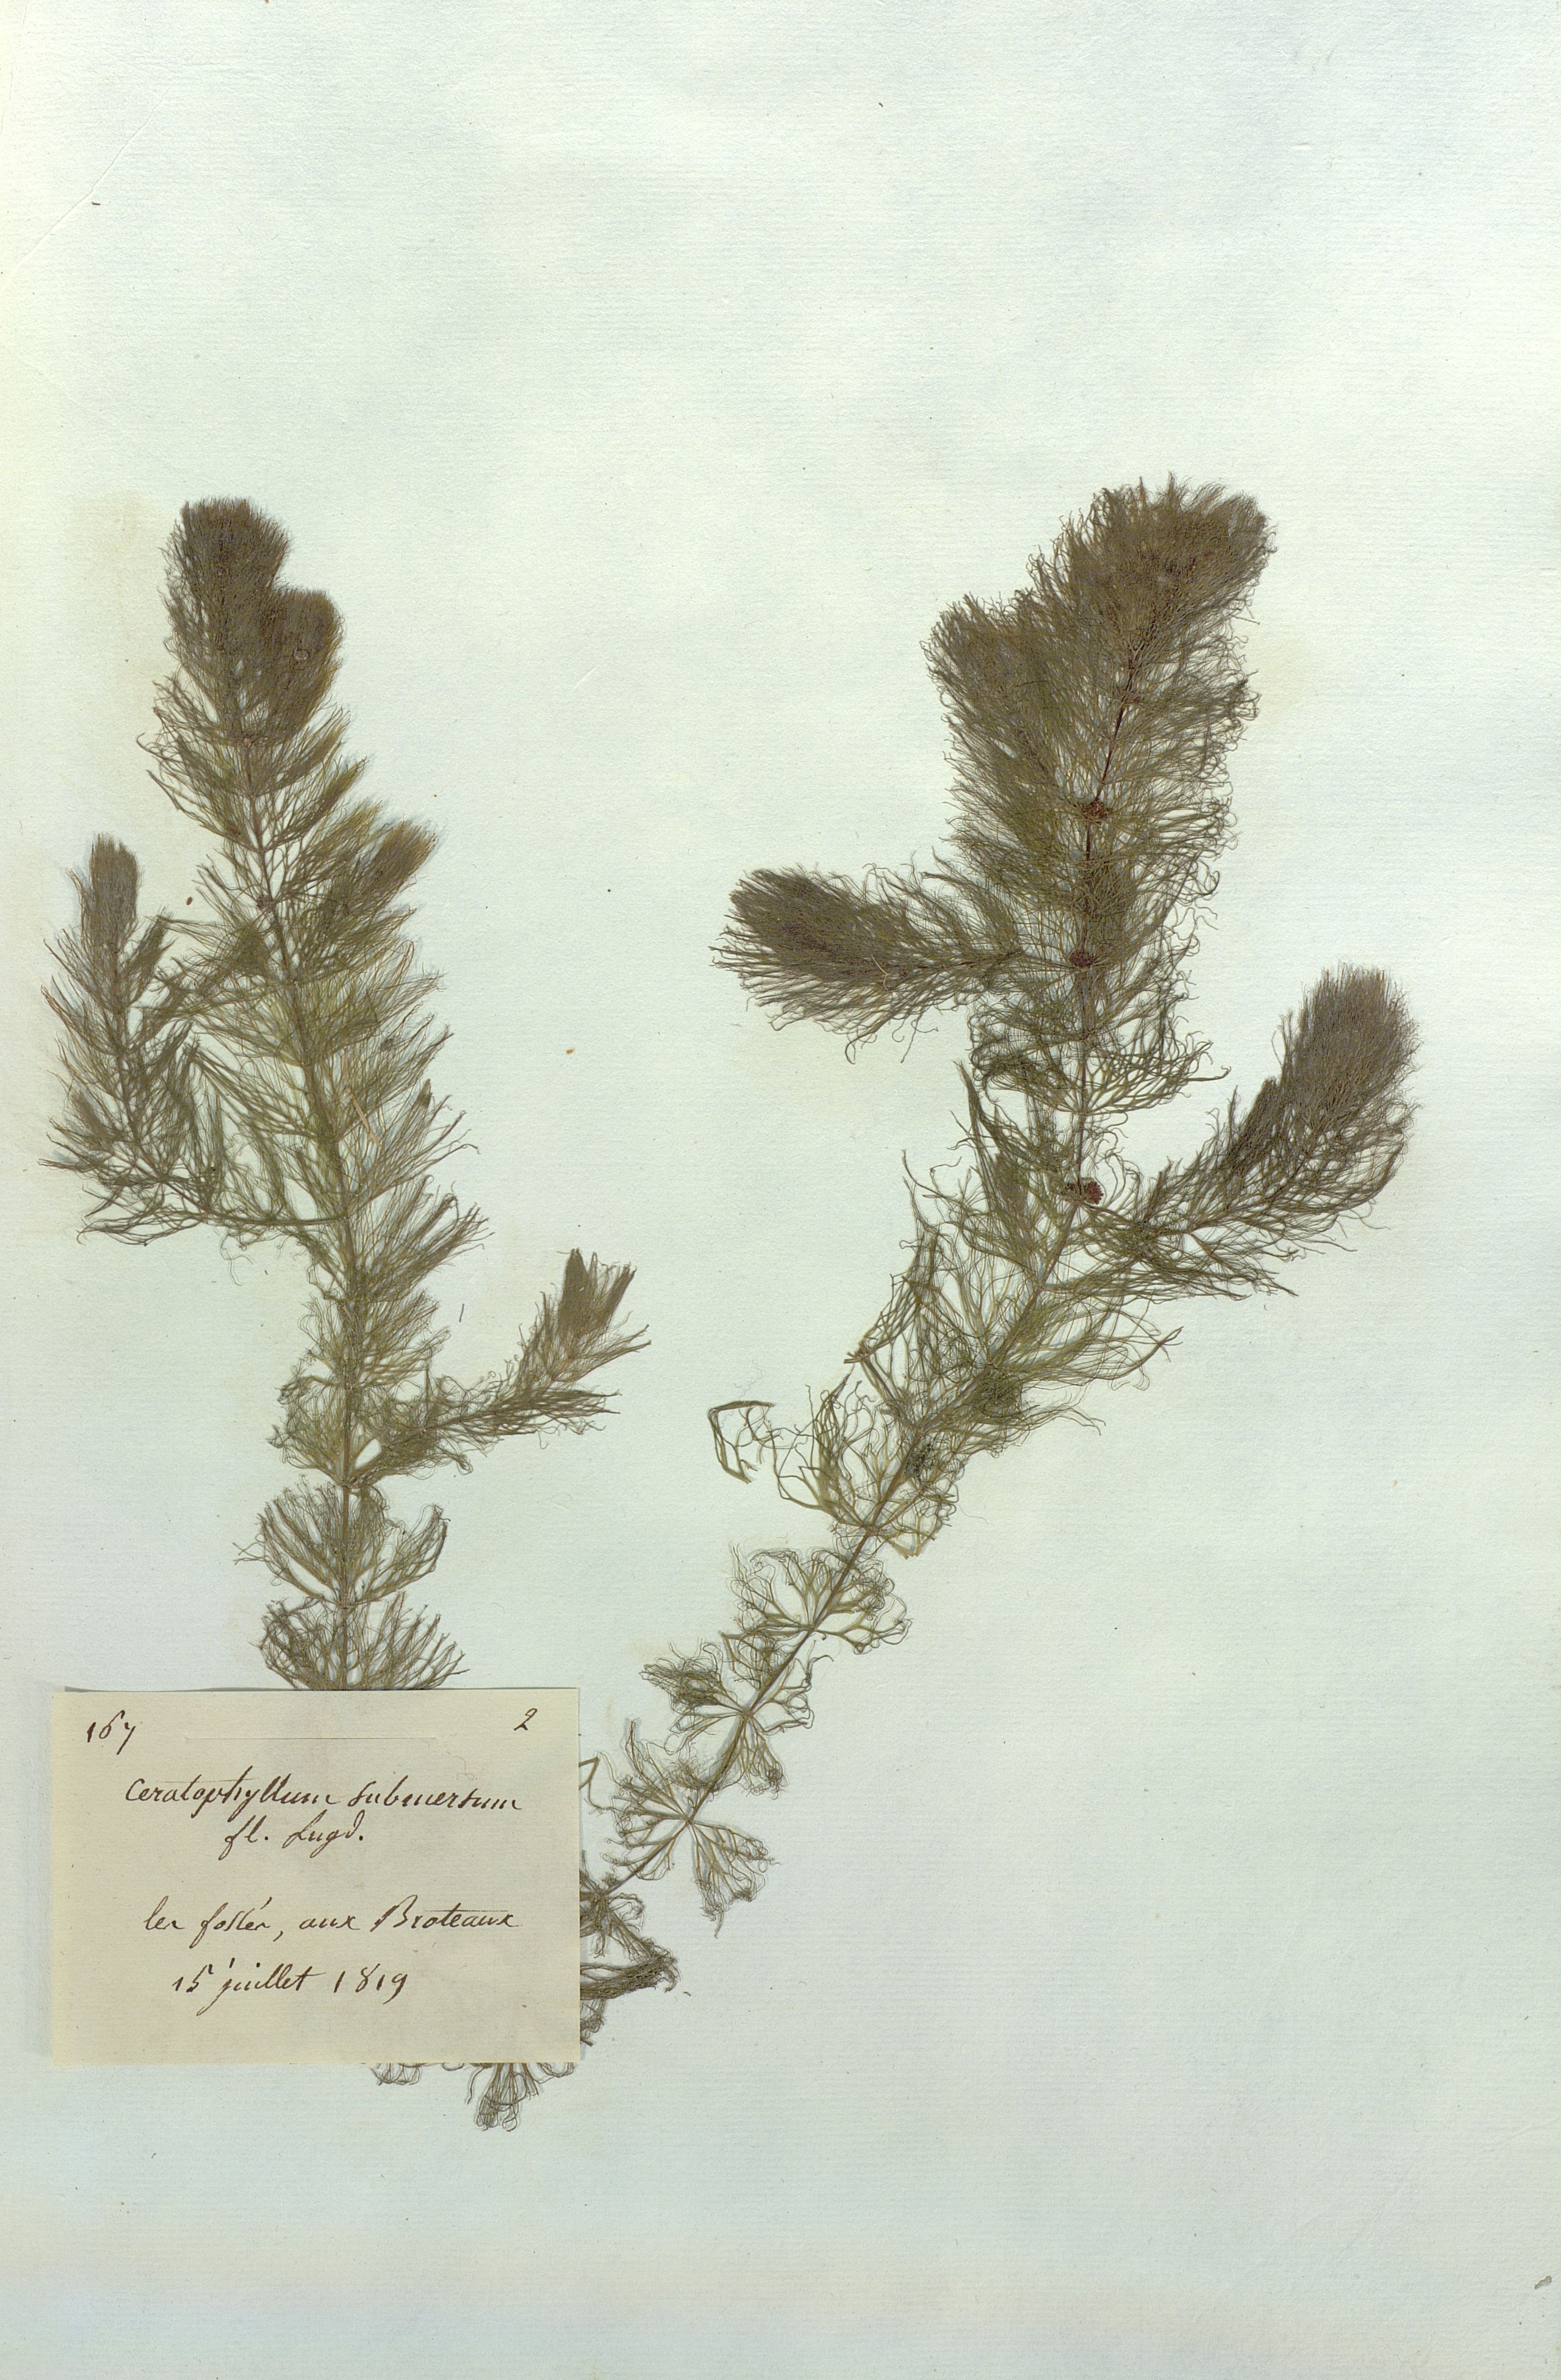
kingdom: Plantae
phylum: Tracheophyta
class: Magnoliopsida
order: Ceratophyllales
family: Ceratophyllaceae
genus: Ceratophyllum
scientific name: Ceratophyllum submersum
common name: Soft hornwort
